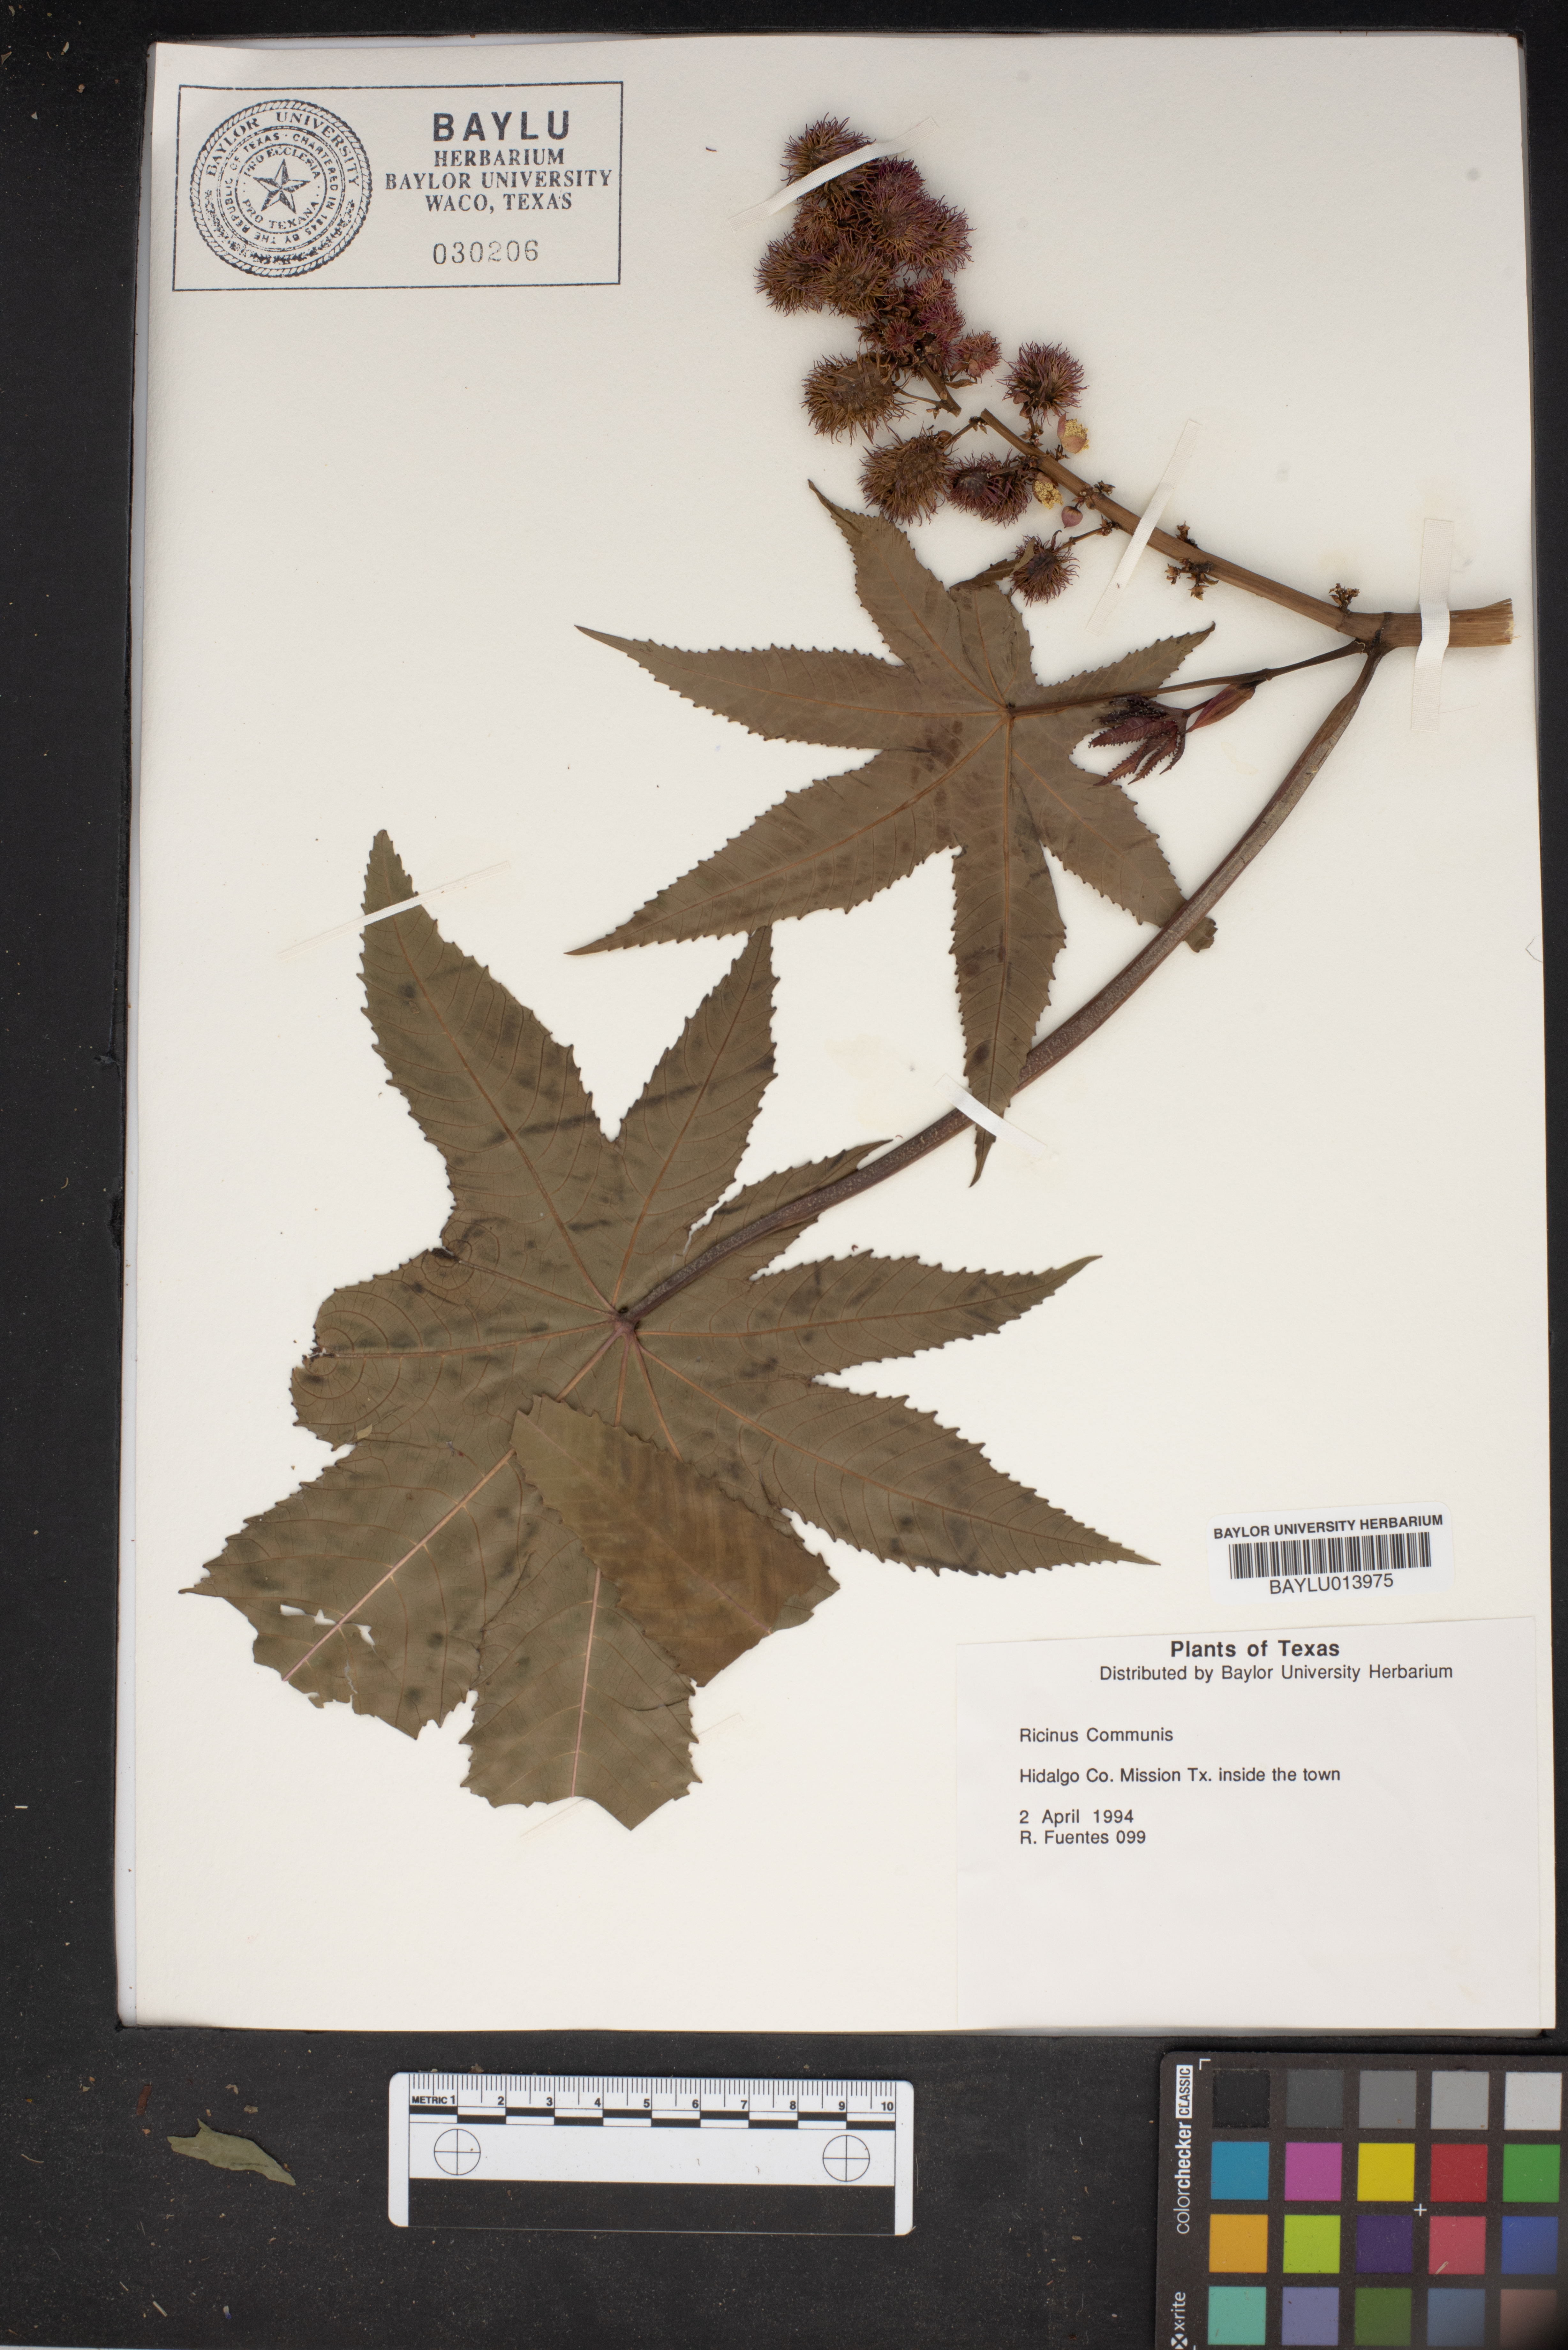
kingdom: Plantae
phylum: Tracheophyta
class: Magnoliopsida
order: Malpighiales
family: Euphorbiaceae
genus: Ricinus
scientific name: Ricinus communis
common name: Castor-oil-plant
